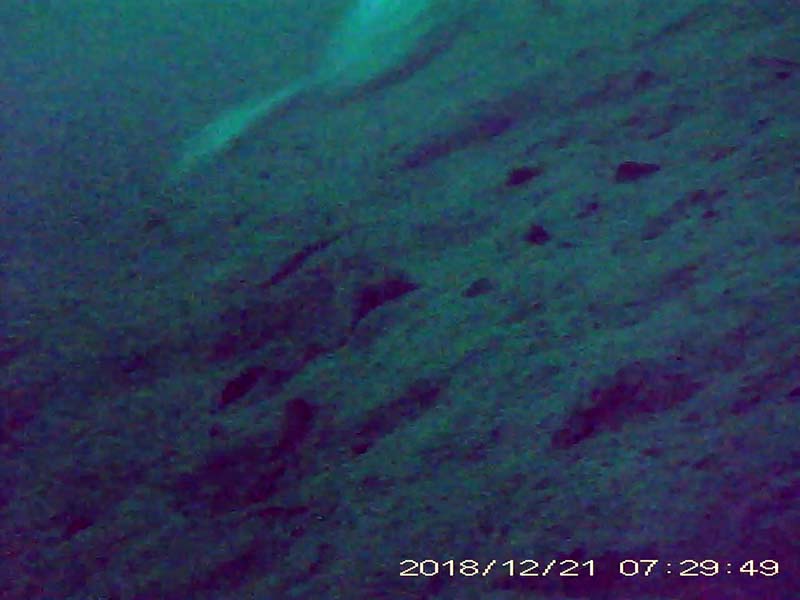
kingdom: Animalia
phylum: Chordata
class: Aves
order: Podicipediformes
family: Podicipedidae
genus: Podiceps
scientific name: Podiceps cristatus
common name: カンムリカイツブリ
